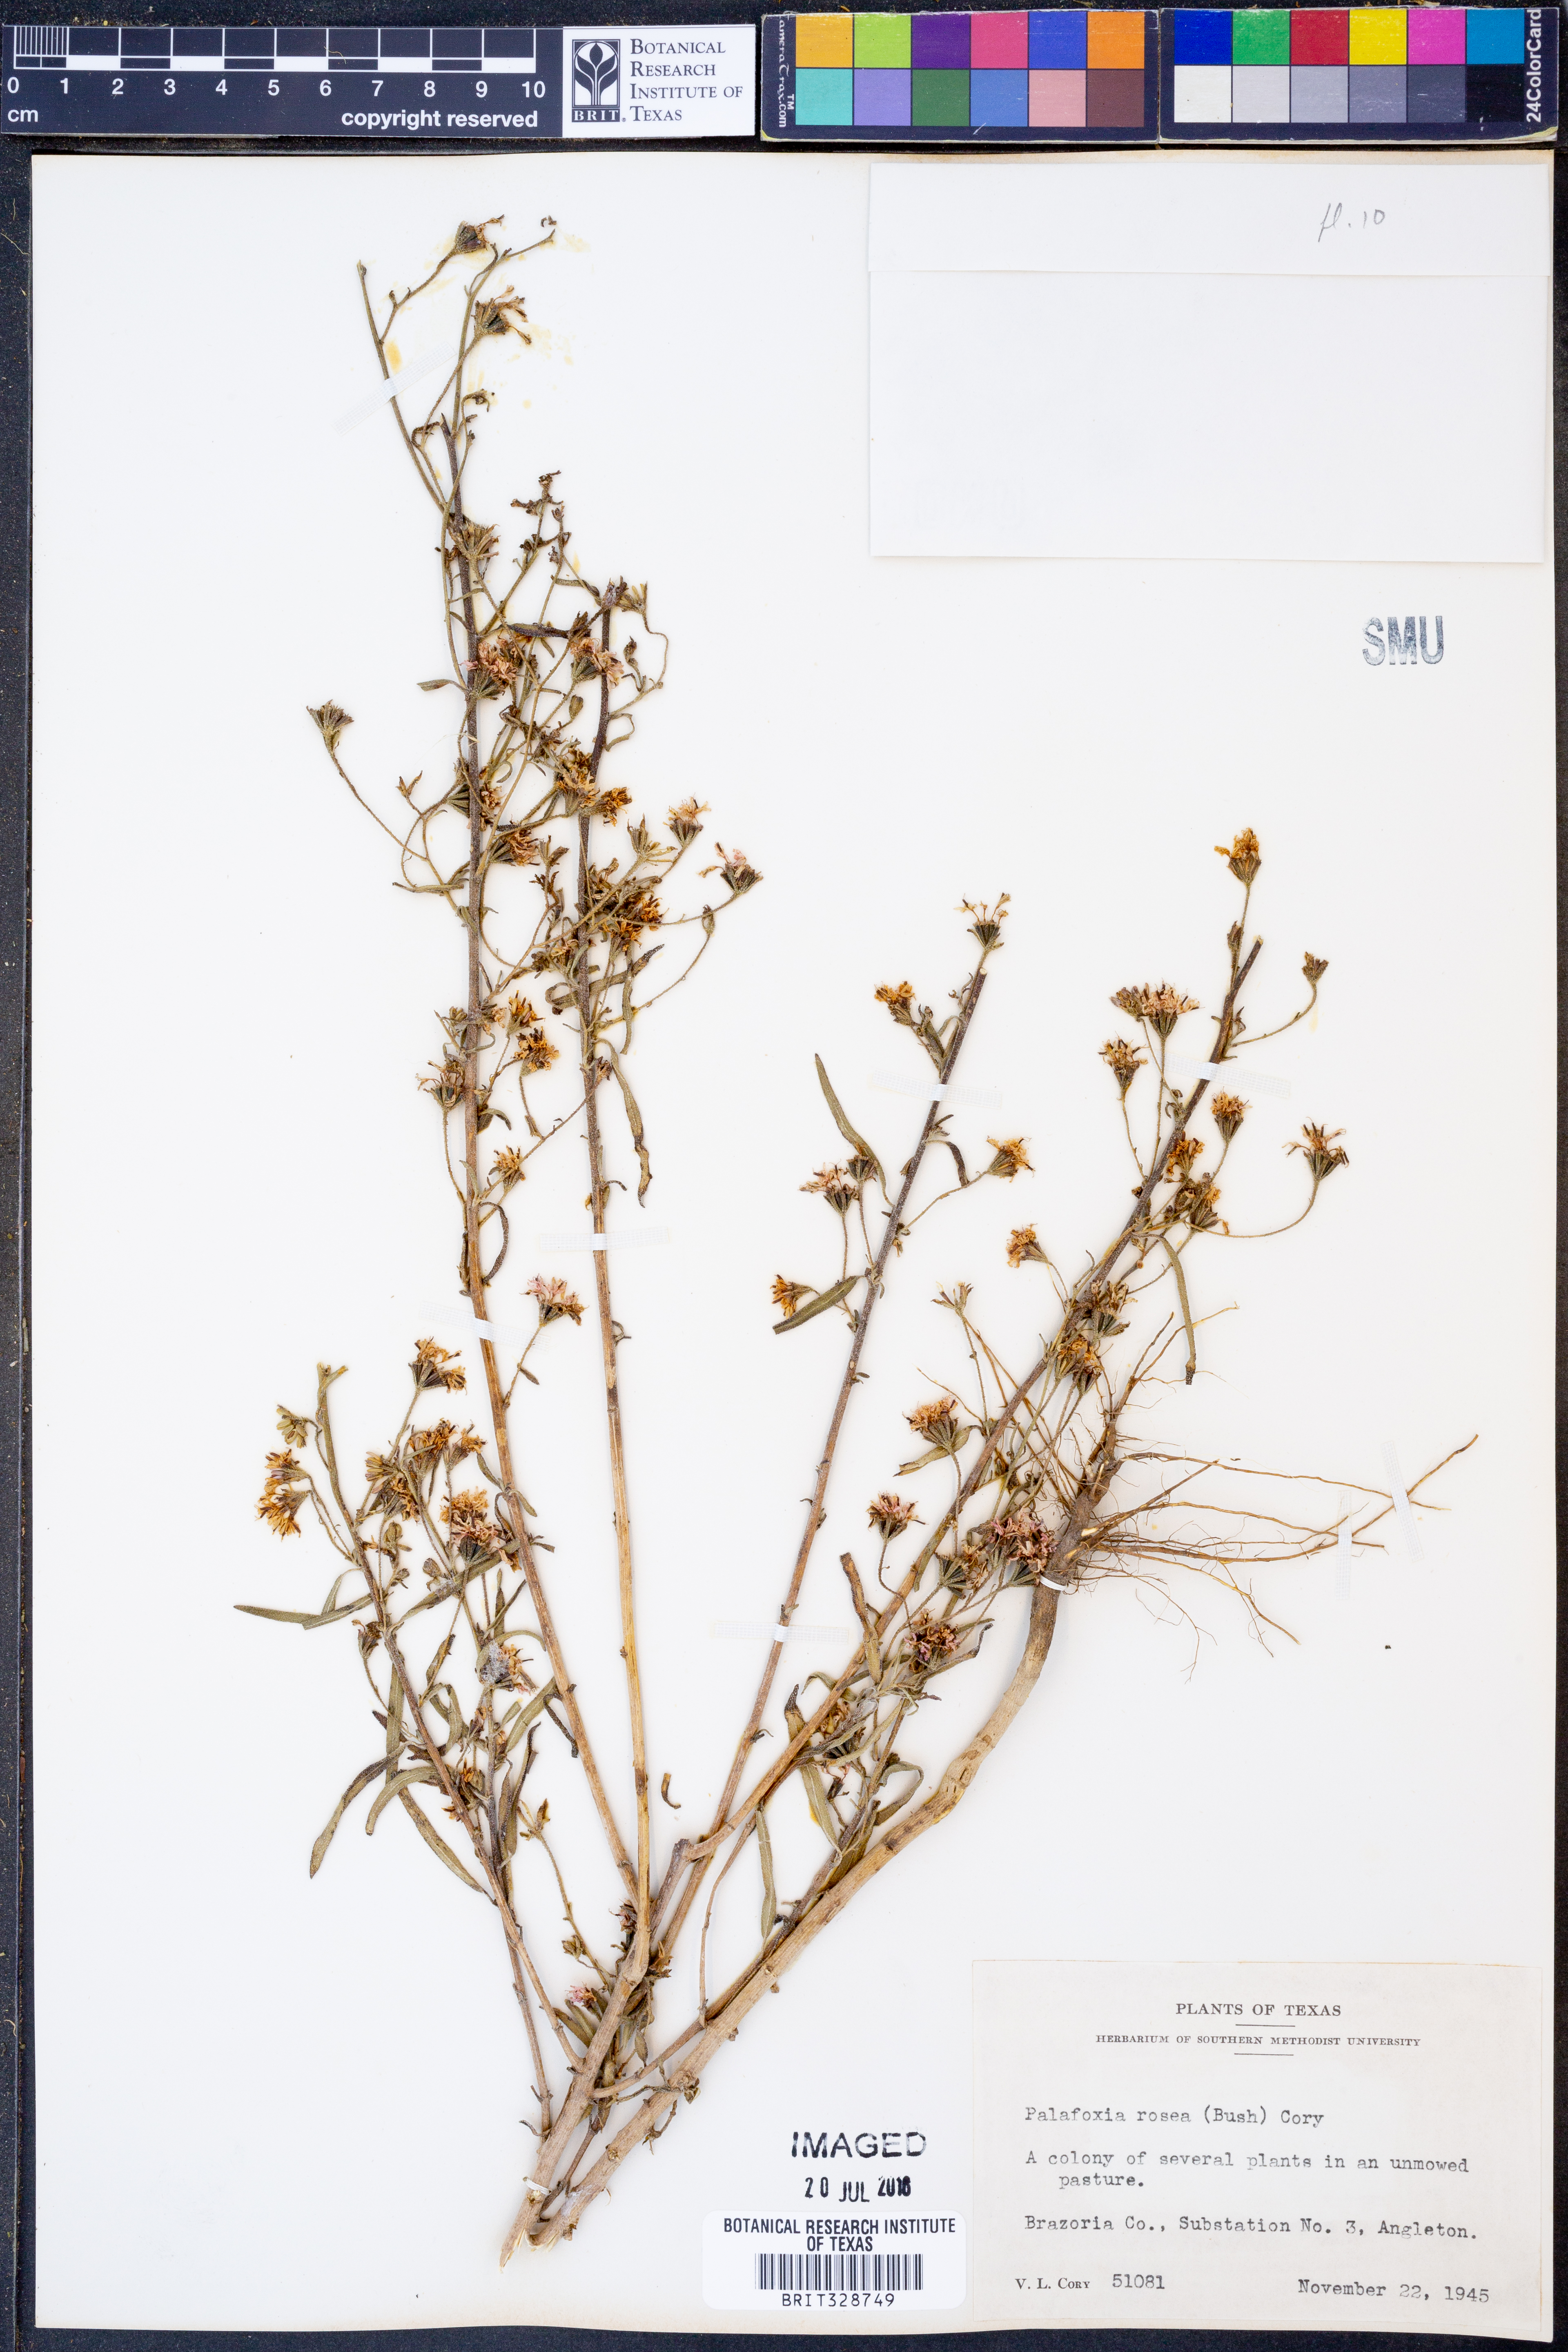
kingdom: Plantae
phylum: Tracheophyta
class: Magnoliopsida
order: Asterales
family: Asteraceae
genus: Palafoxia
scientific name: Palafoxia rosea
